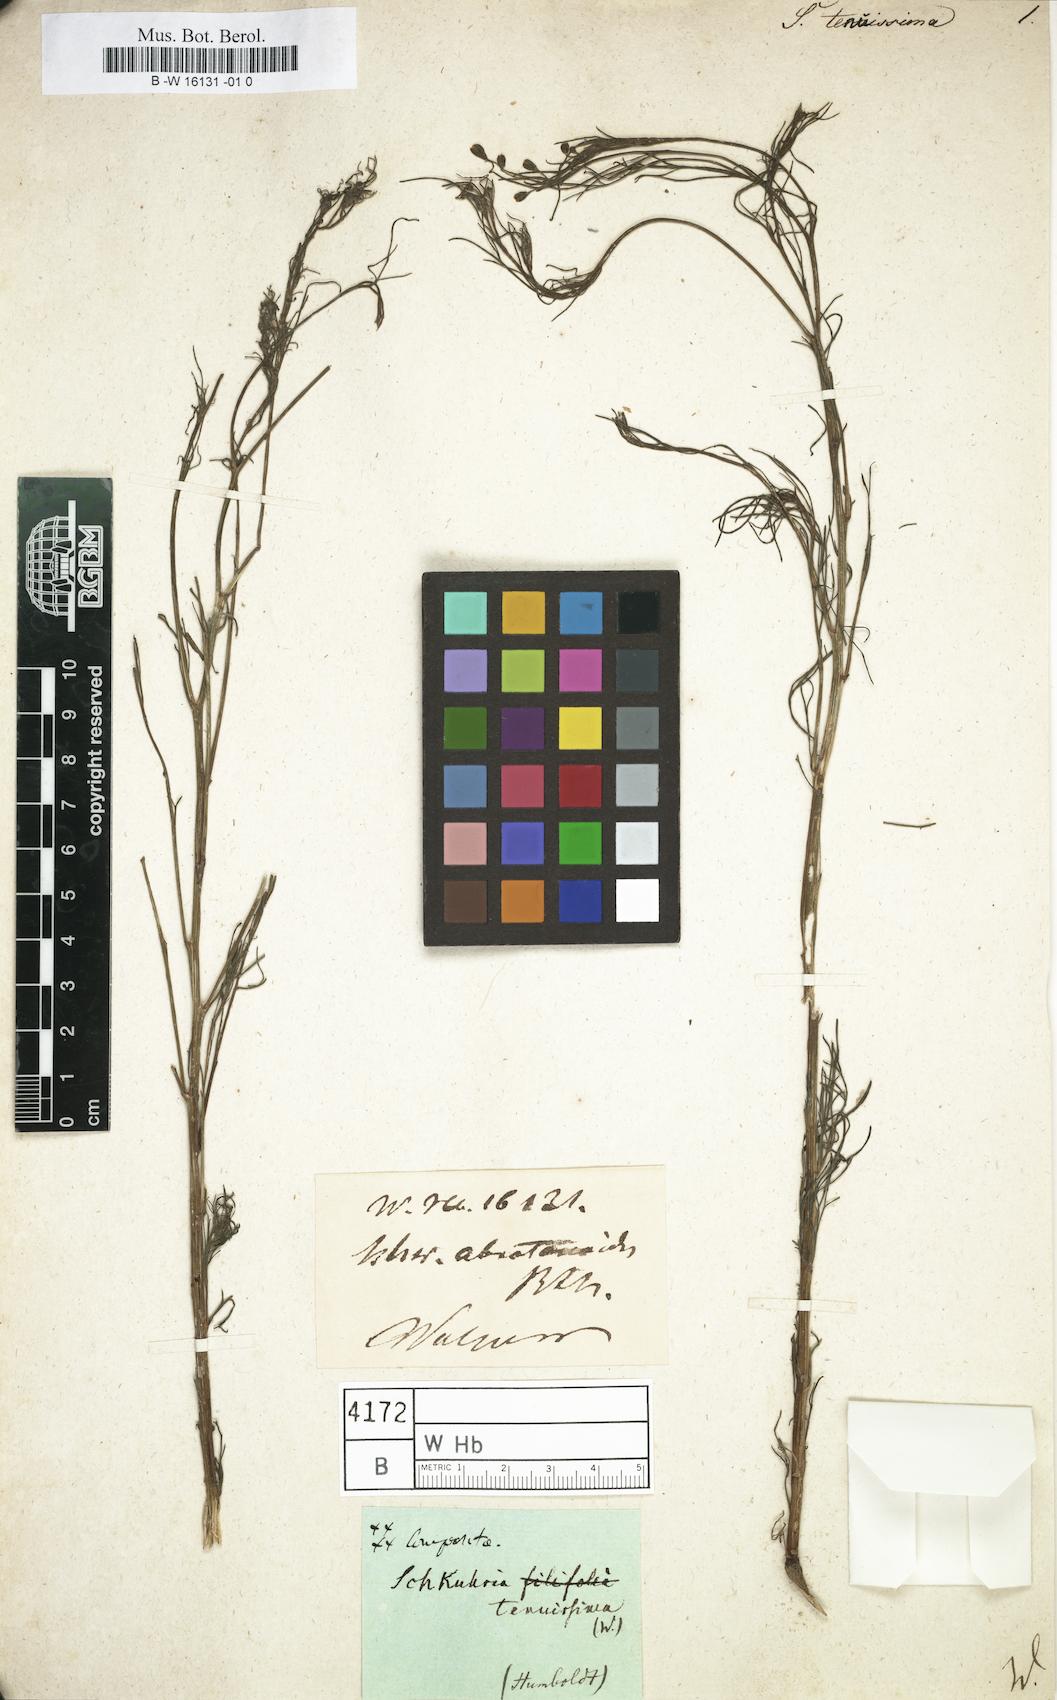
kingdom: Plantae
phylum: Tracheophyta
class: Magnoliopsida
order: Asterales
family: Asteraceae
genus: Schkuhria
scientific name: Schkuhria
